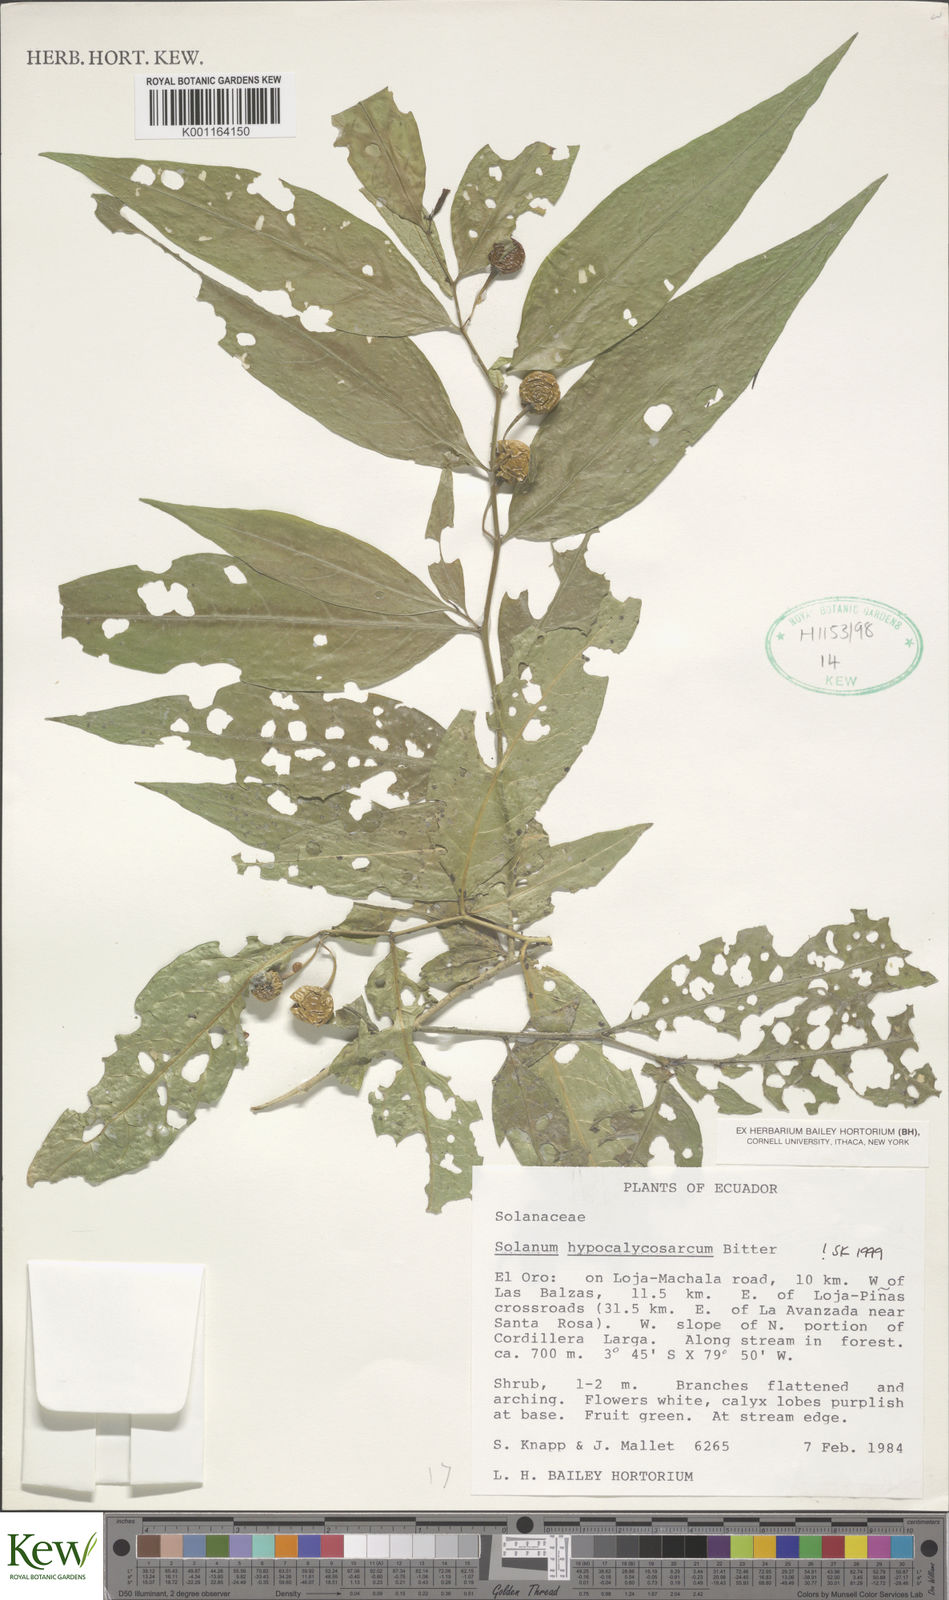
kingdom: Plantae
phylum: Tracheophyta
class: Magnoliopsida
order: Solanales
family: Solanaceae
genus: Solanum
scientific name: Solanum hypocalycosarcum
